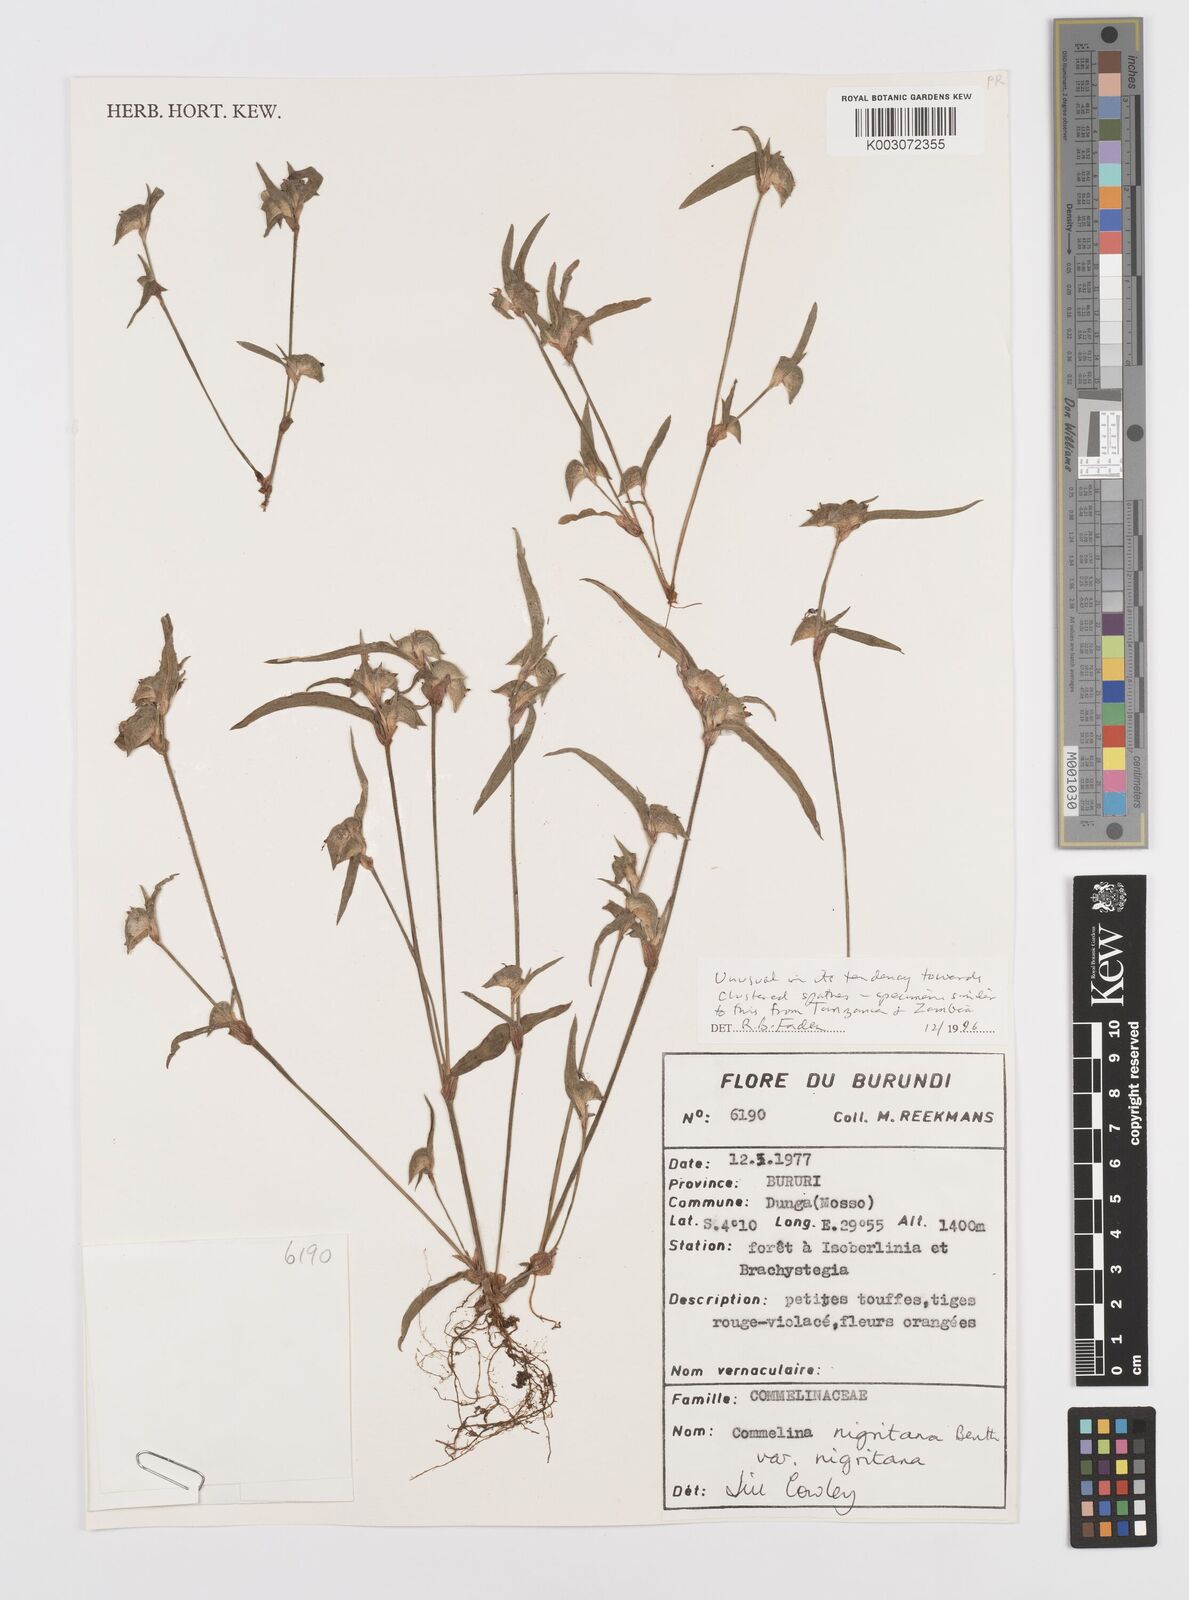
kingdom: Plantae
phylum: Tracheophyta
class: Liliopsida
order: Commelinales
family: Commelinaceae
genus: Commelina
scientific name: Commelina
